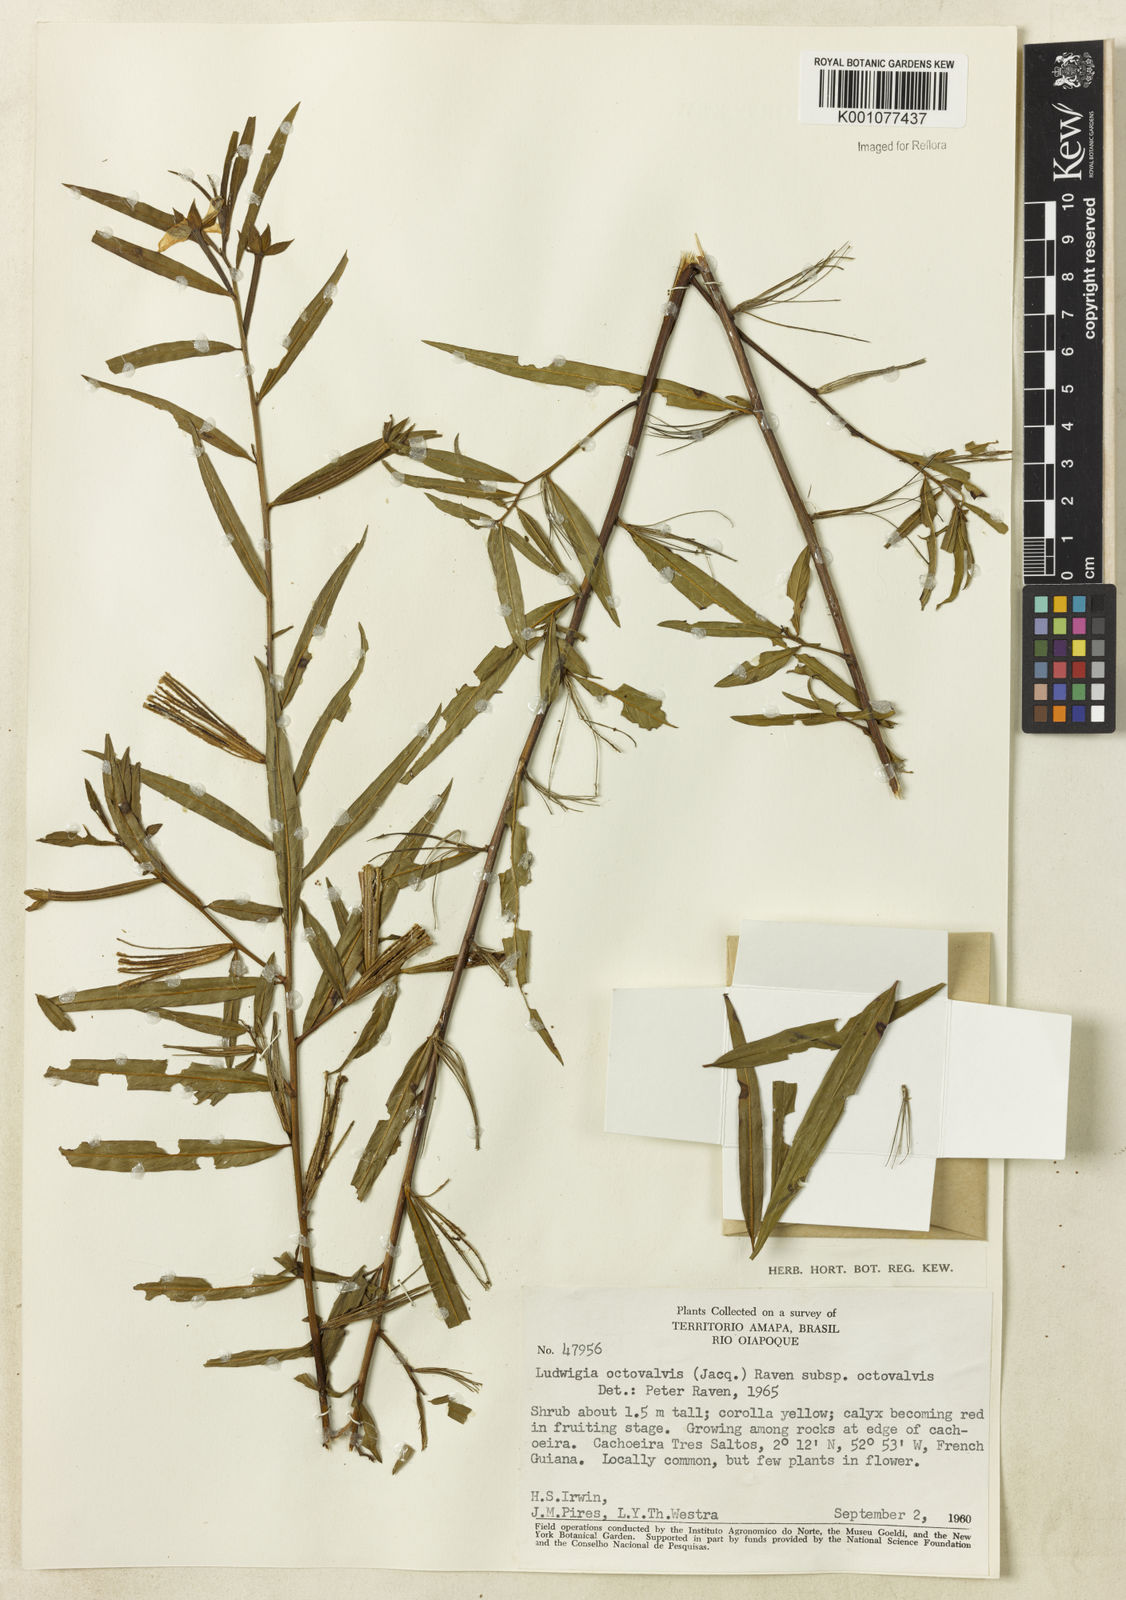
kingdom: Plantae
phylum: Tracheophyta
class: Magnoliopsida
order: Myrtales
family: Onagraceae
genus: Ludwigia
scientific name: Ludwigia octovalvis
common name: Water-primrose
